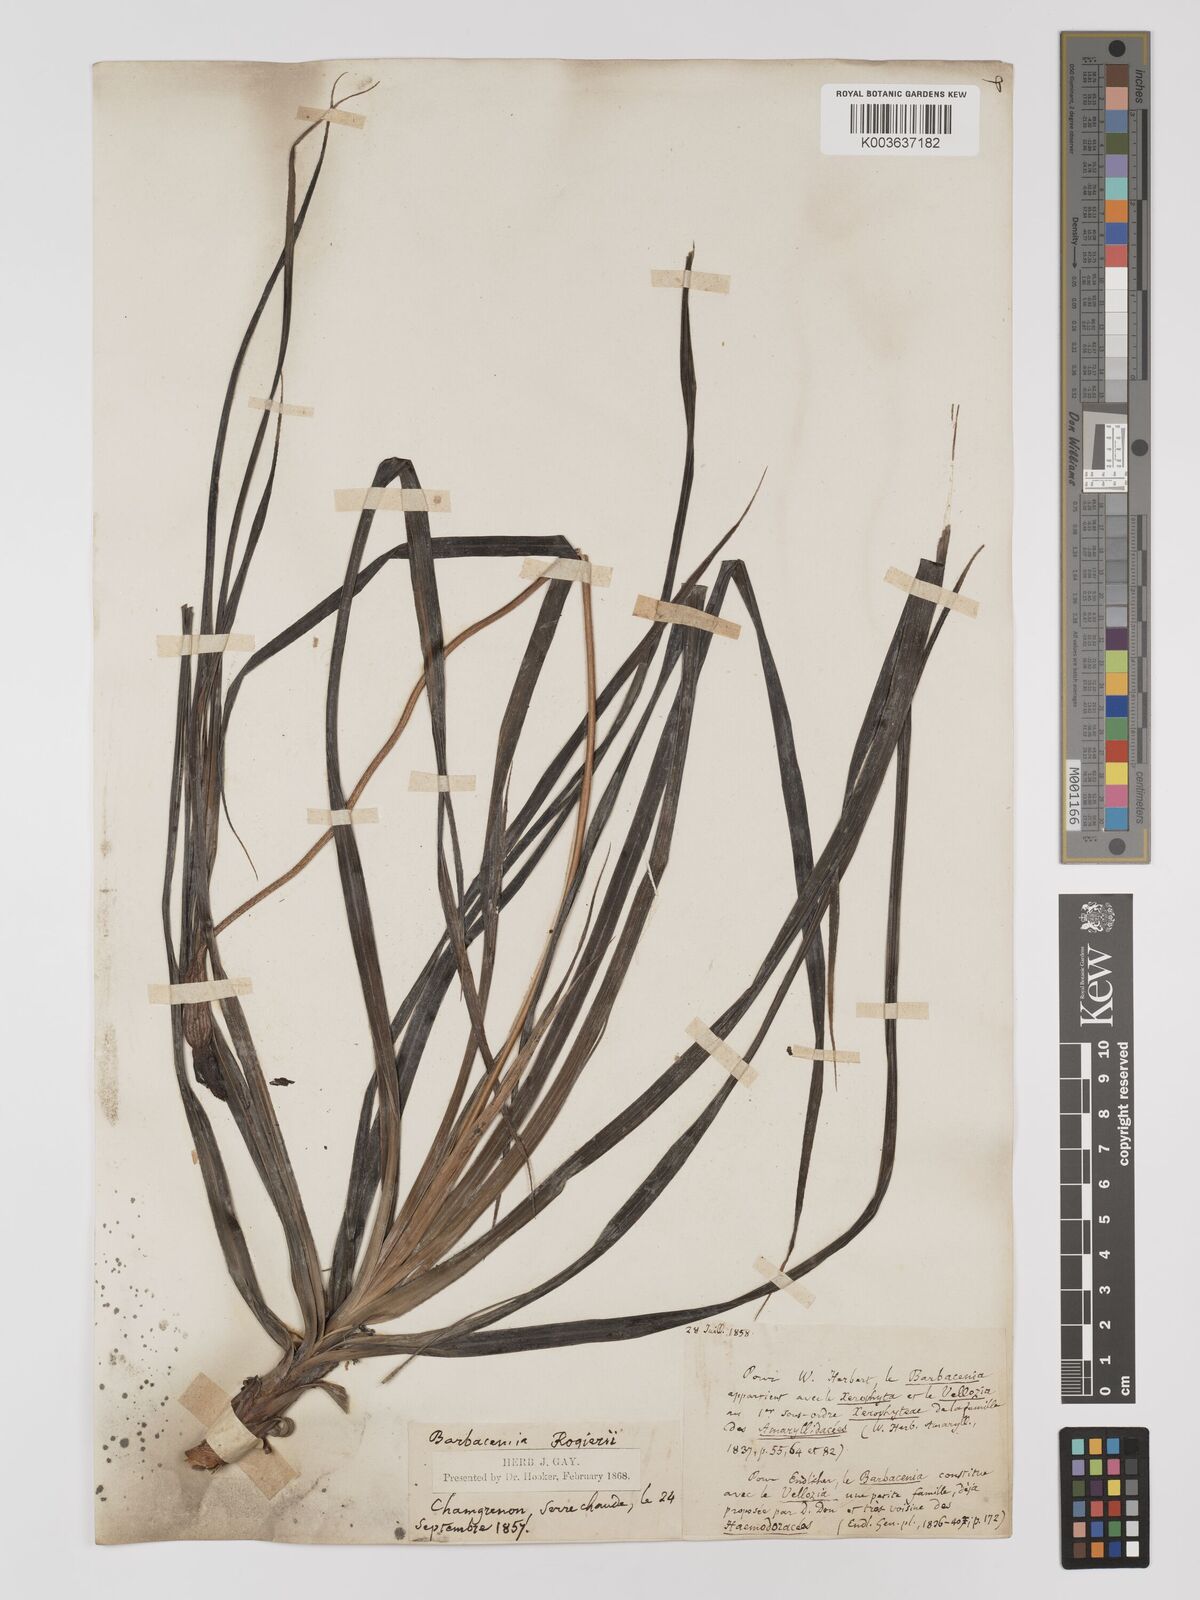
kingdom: Plantae
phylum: Tracheophyta
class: Liliopsida
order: Pandanales
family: Velloziaceae
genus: Barbacenia
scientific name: Barbacenia rogieri
